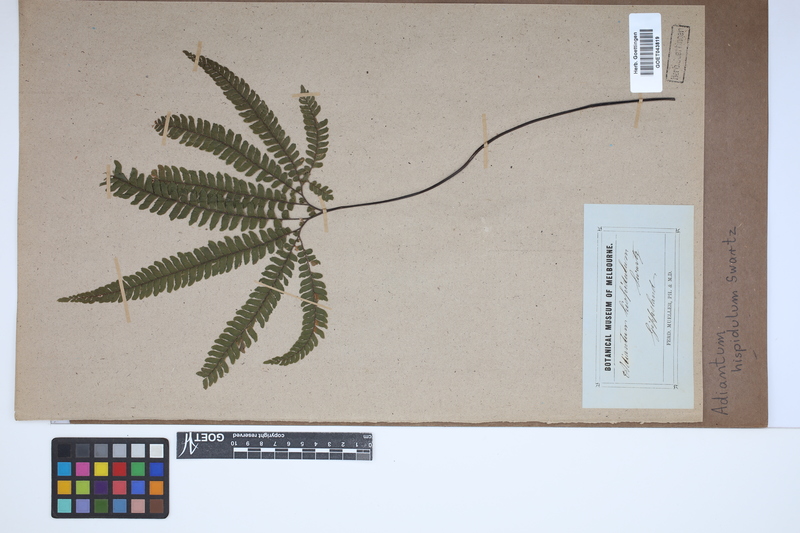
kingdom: Plantae
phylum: Tracheophyta
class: Polypodiopsida
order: Polypodiales
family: Pteridaceae
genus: Adiantum
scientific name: Adiantum hispidulum
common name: Rough maidenhair
